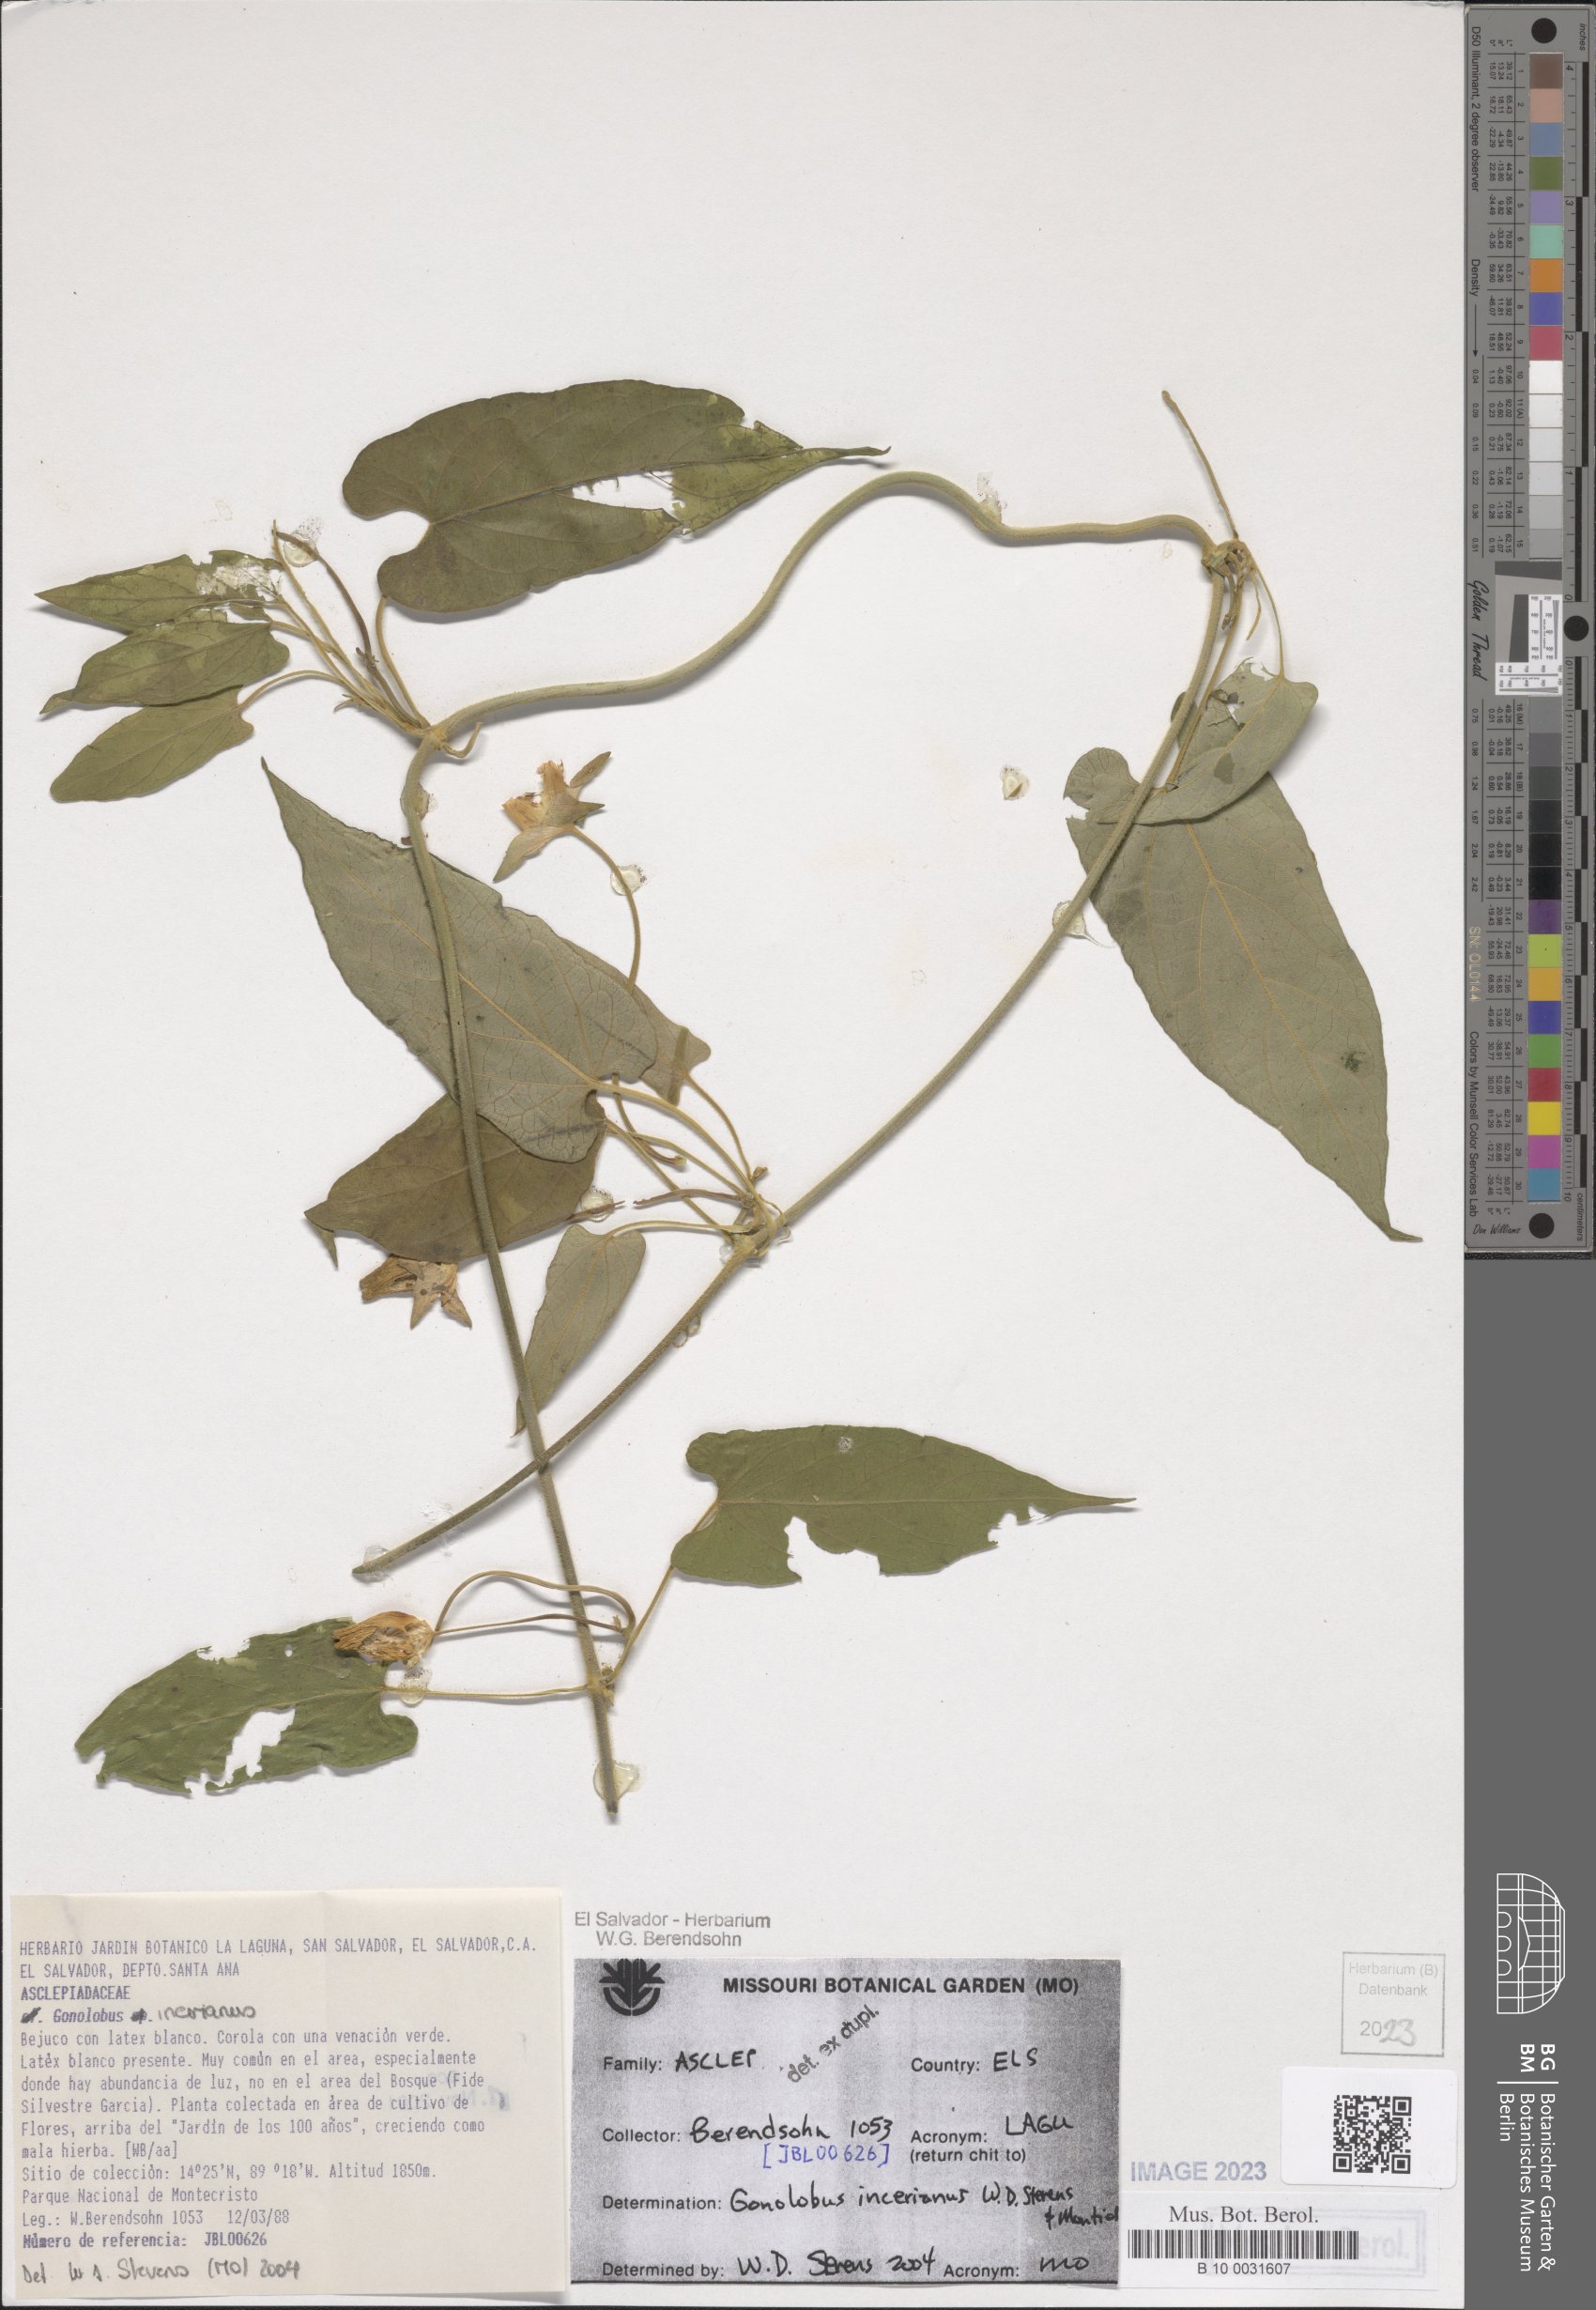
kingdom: Plantae
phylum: Tracheophyta
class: Magnoliopsida
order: Gentianales
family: Apocynaceae
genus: Gonolobus
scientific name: Gonolobus incerianus
